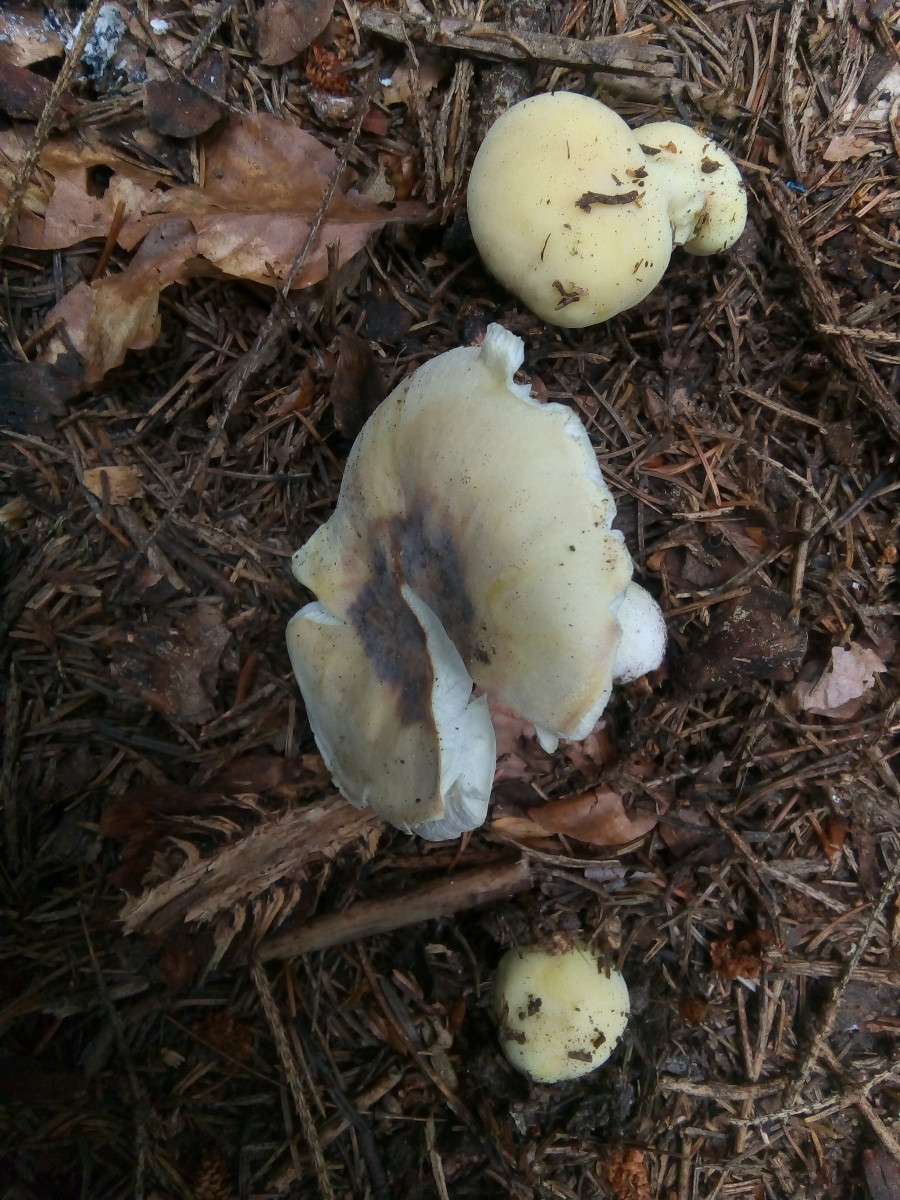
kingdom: Fungi
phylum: Basidiomycota
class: Agaricomycetes
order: Russulales
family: Russulaceae
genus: Russula
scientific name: Russula violeipes
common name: ferskengul skørhat
